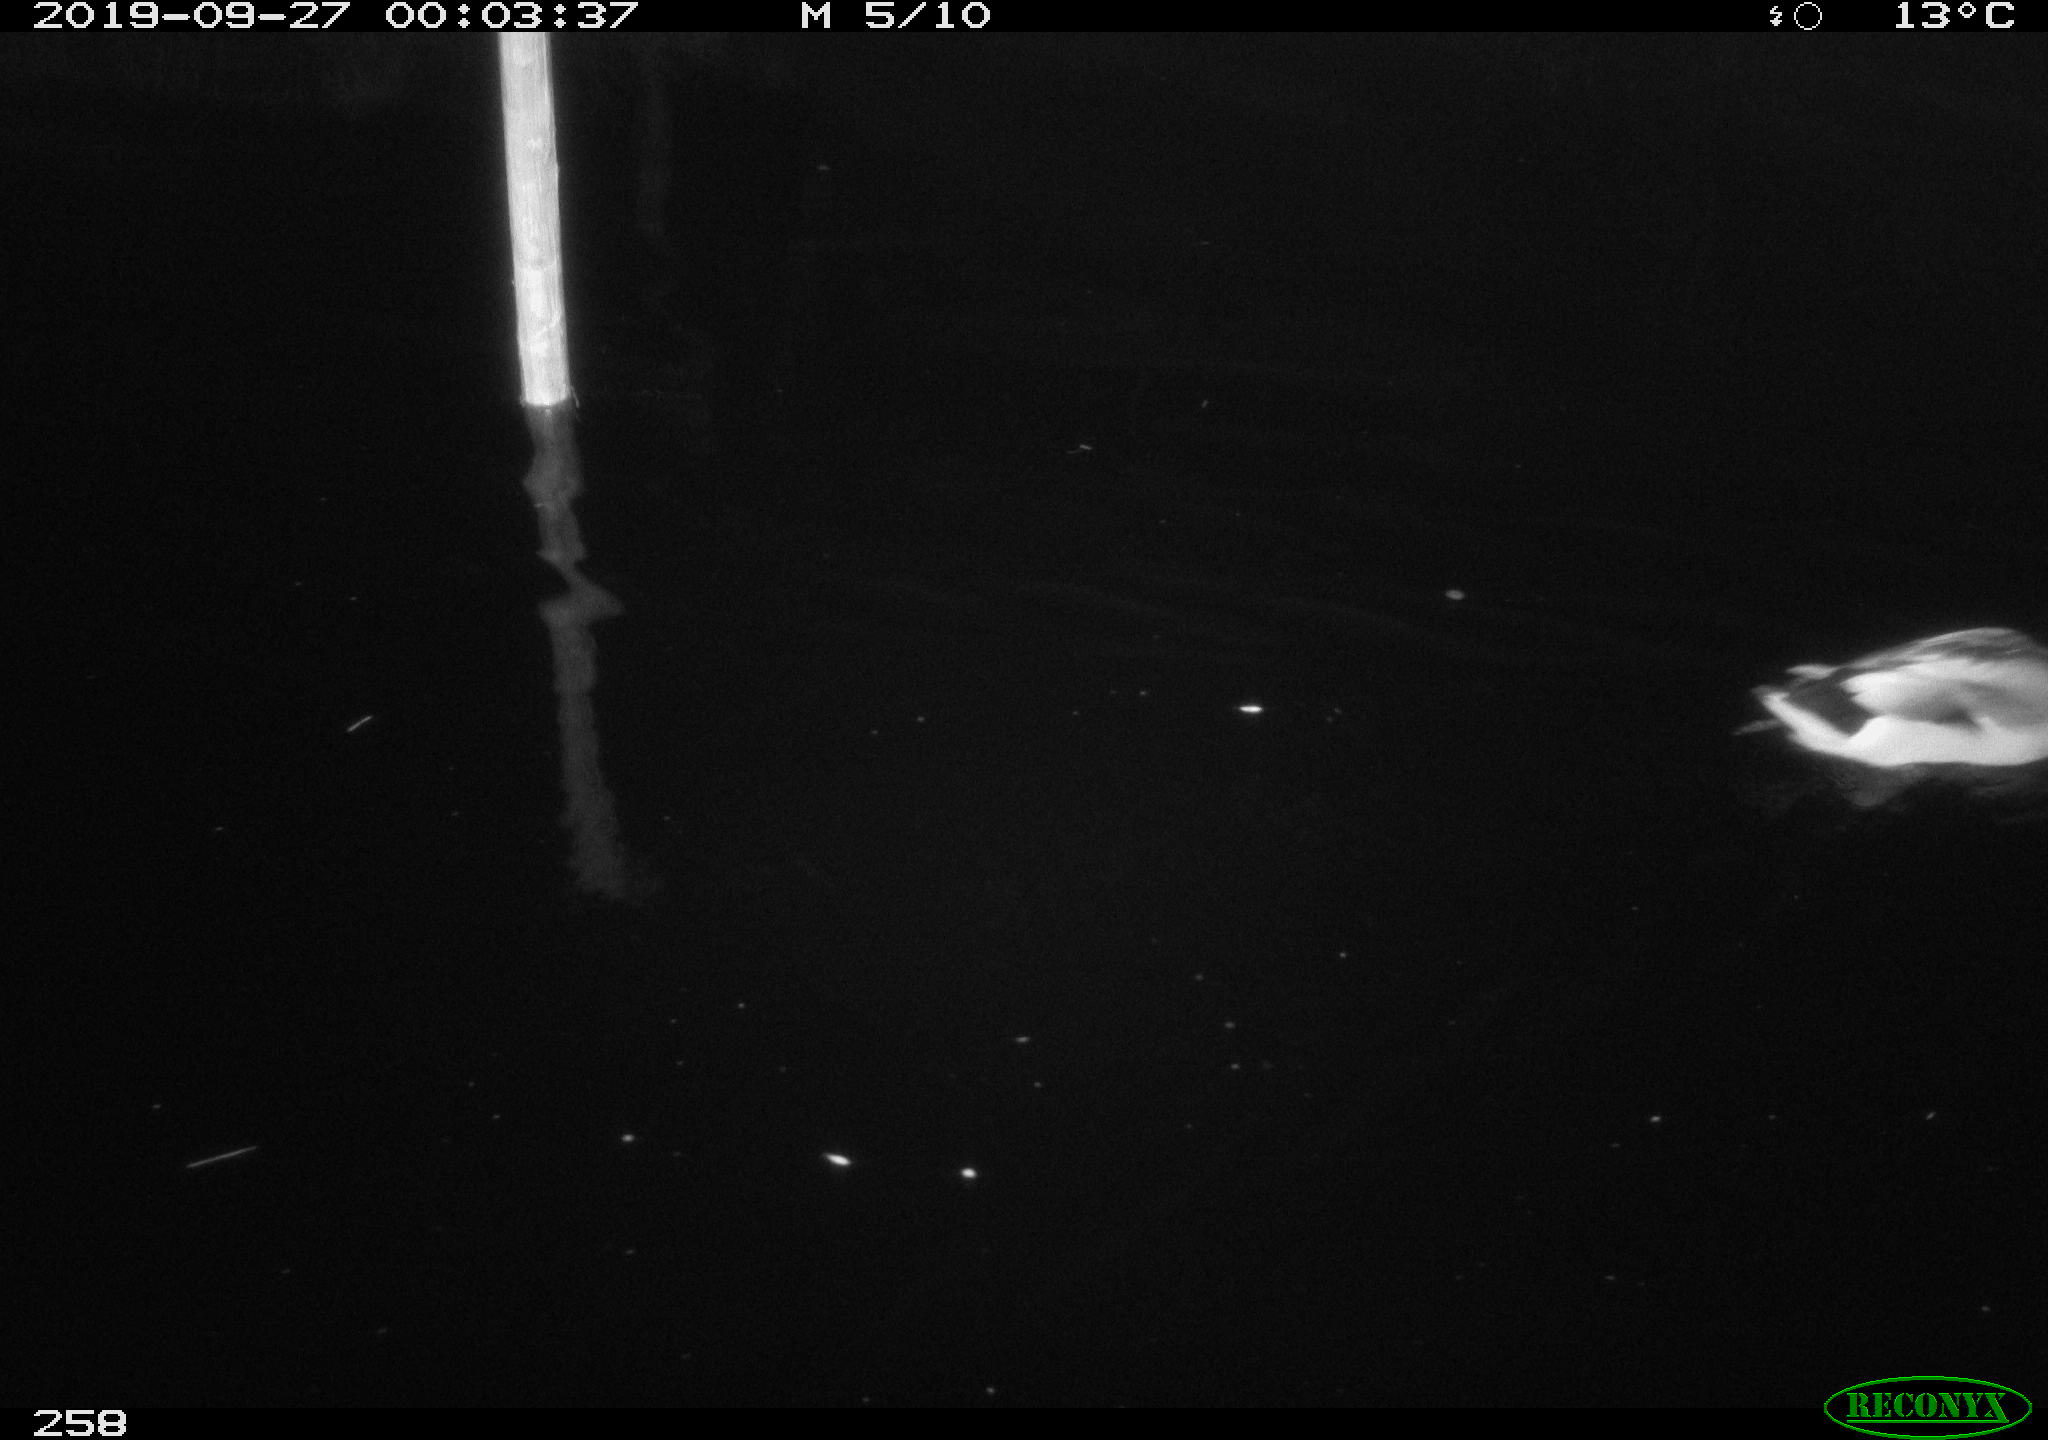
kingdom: Animalia
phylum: Chordata
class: Aves
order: Anseriformes
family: Anatidae
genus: Anas
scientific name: Anas platyrhynchos
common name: Mallard
